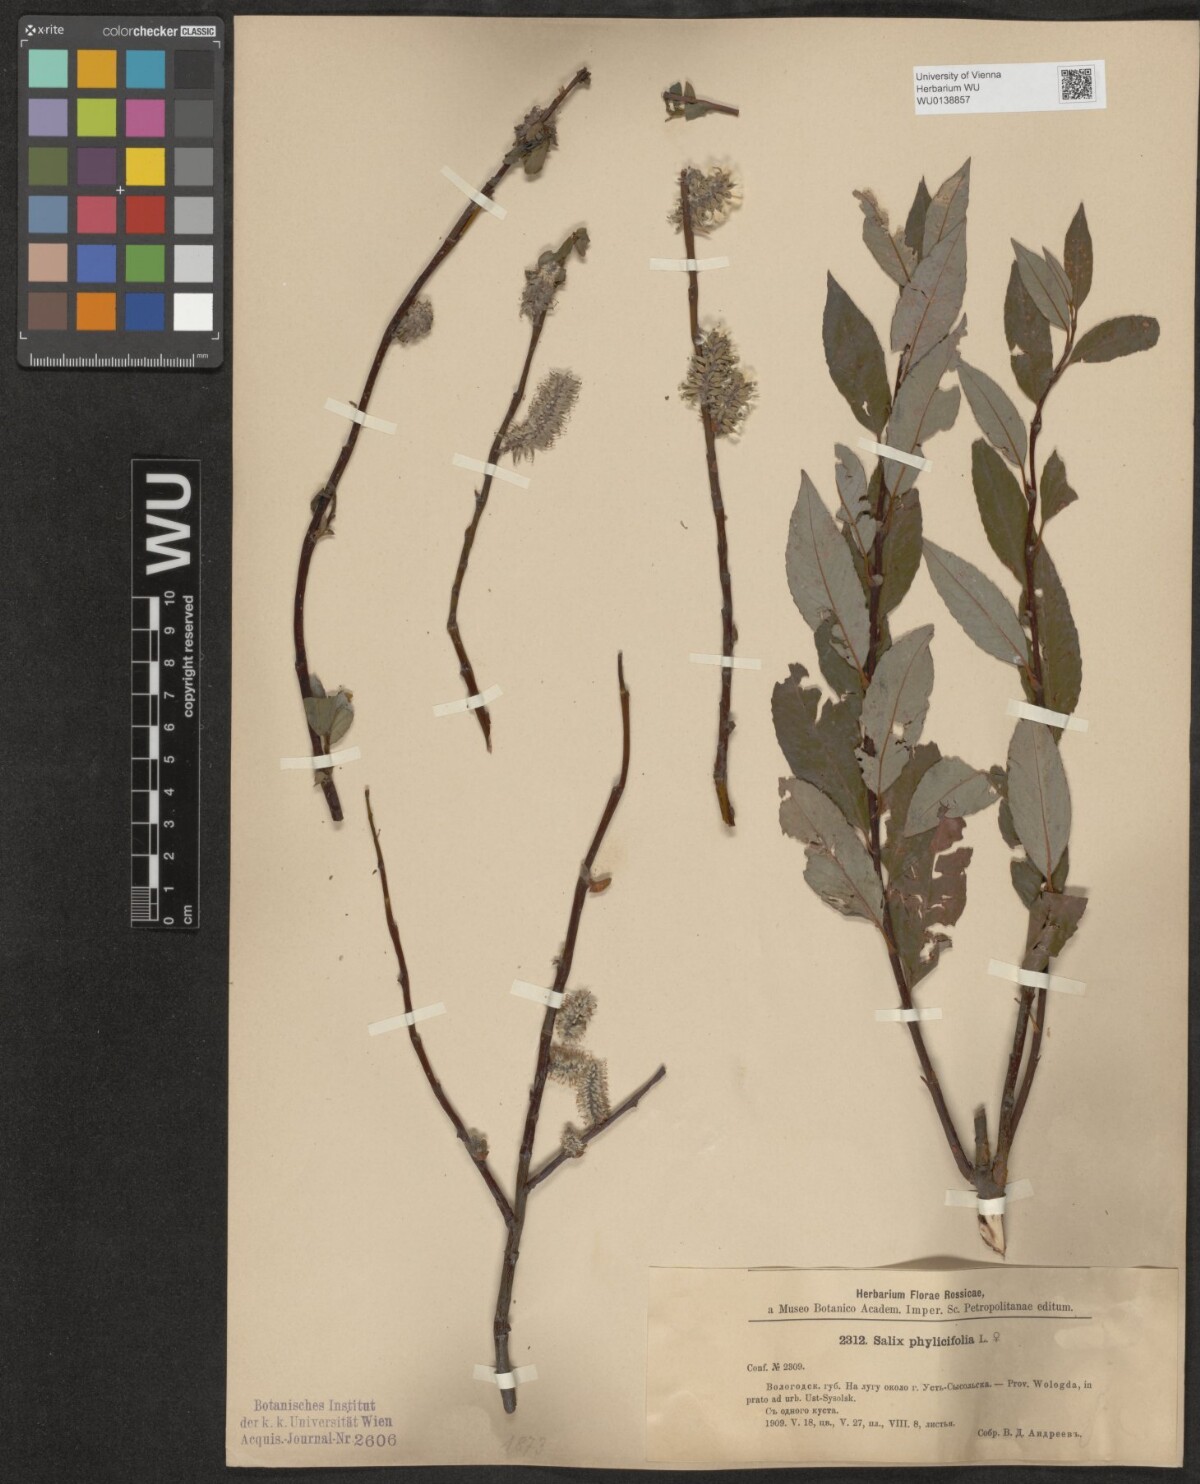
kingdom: Plantae
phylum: Tracheophyta
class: Magnoliopsida
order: Malpighiales
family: Salicaceae
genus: Salix
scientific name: Salix phylicifolia
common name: Tea-leaved willow
